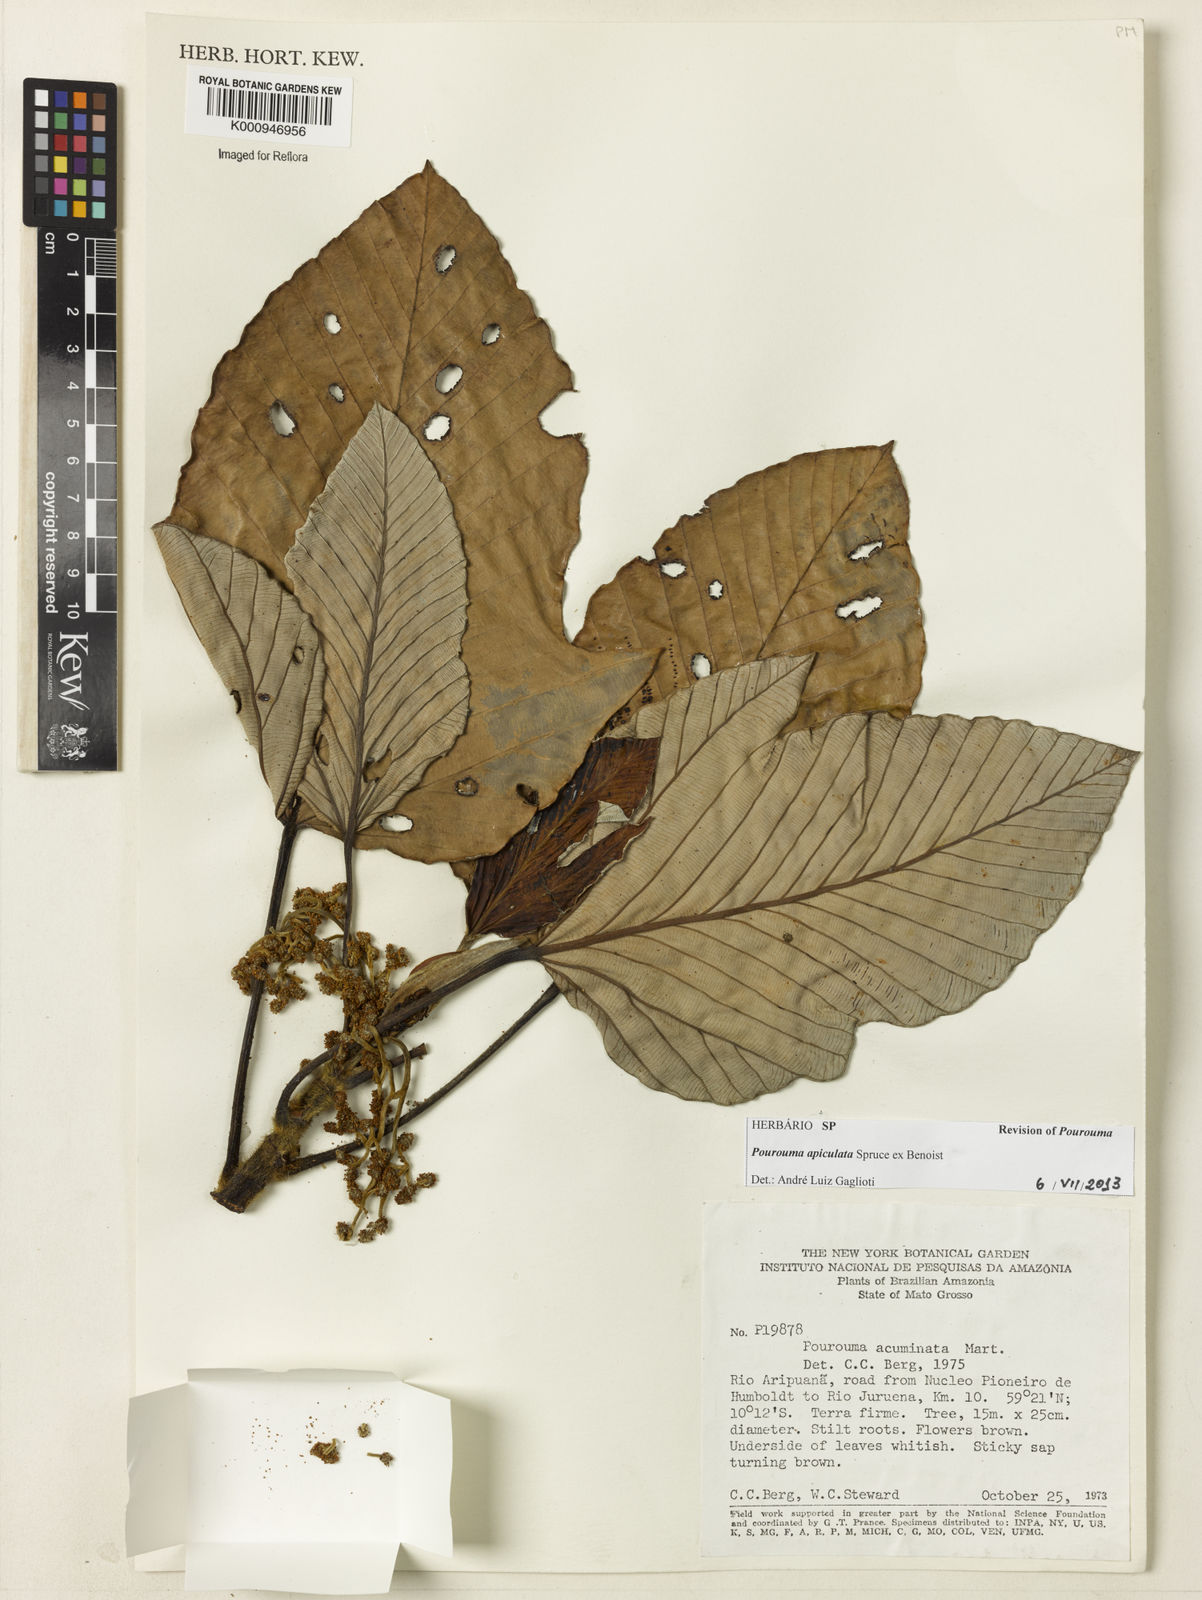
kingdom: Plantae
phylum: Tracheophyta
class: Magnoliopsida
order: Rosales
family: Urticaceae
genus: Pourouma
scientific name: Pourouma tomentosa
